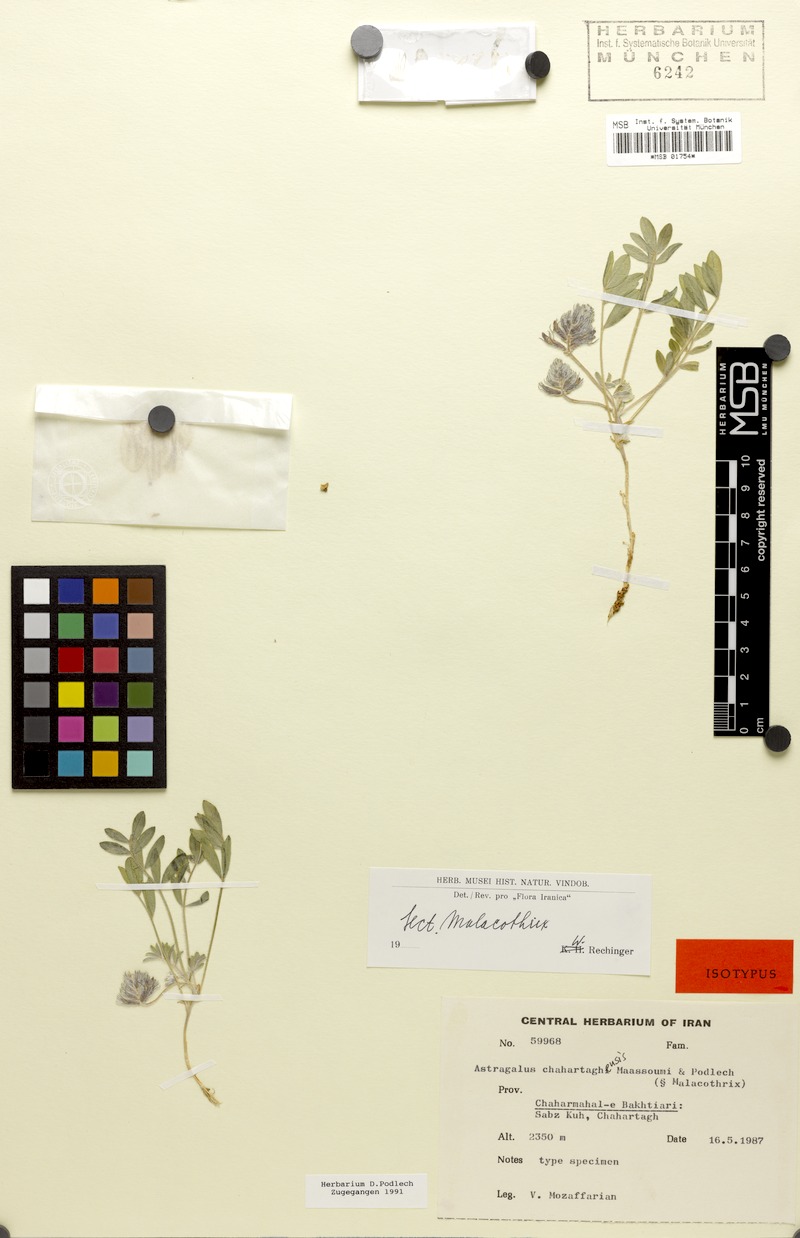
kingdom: Plantae
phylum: Tracheophyta
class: Magnoliopsida
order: Fabales
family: Fabaceae
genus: Astragalus
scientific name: Astragalus chahartaghensis
